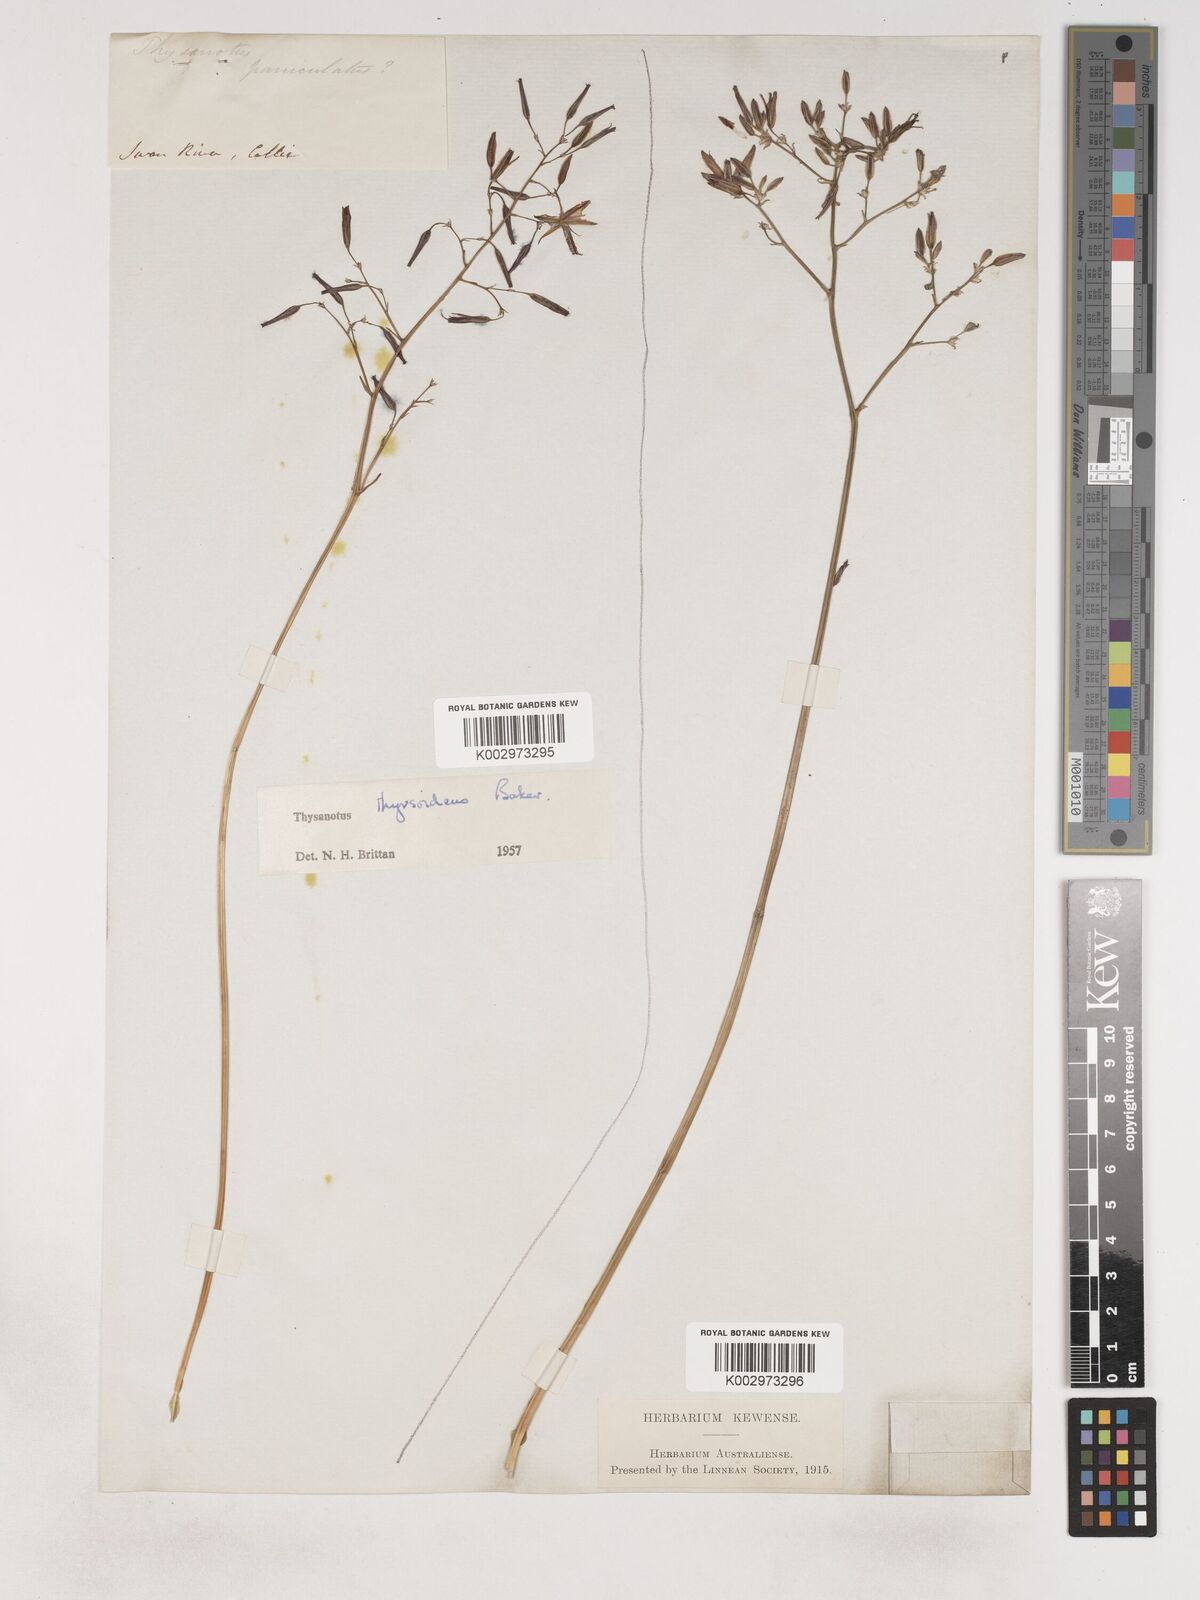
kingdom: Plantae
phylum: Tracheophyta
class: Liliopsida
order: Asparagales
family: Asparagaceae
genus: Thysanotus
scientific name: Thysanotus thyrsoideus
